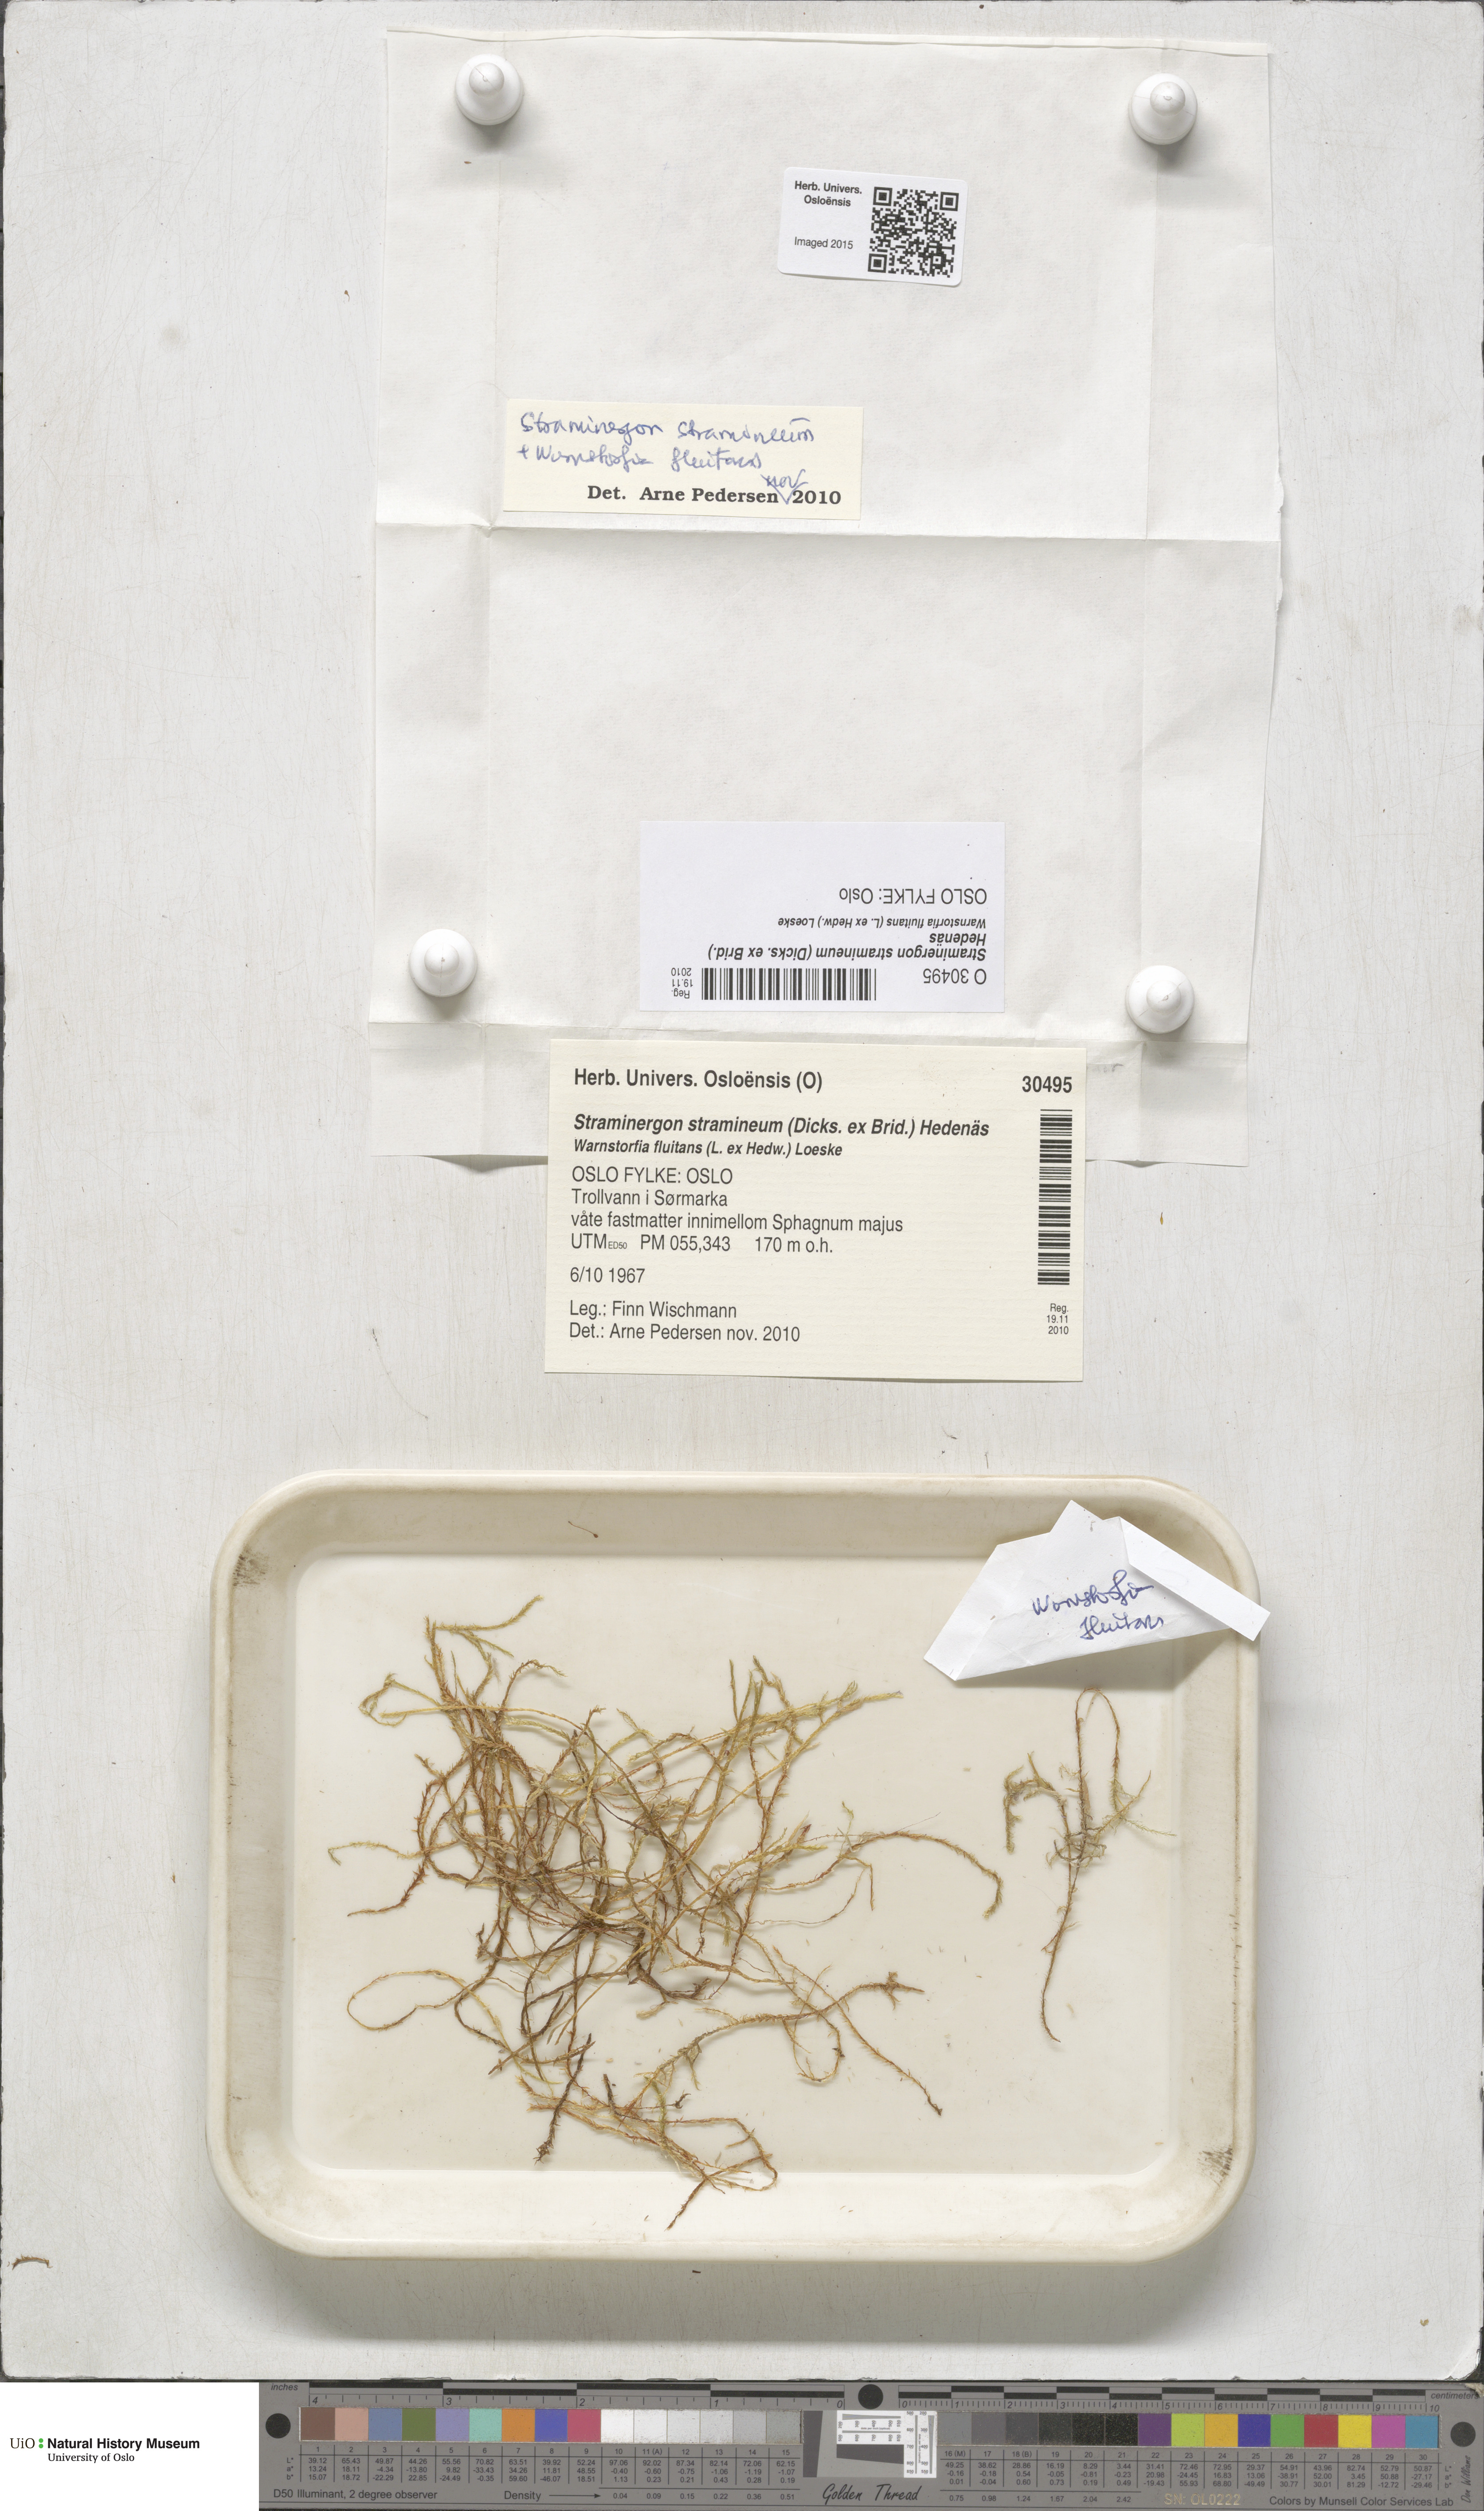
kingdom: Plantae
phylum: Bryophyta
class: Bryopsida
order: Hypnales
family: Calliergonaceae
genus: Straminergon
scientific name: Straminergon stramineum
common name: Straw moss
